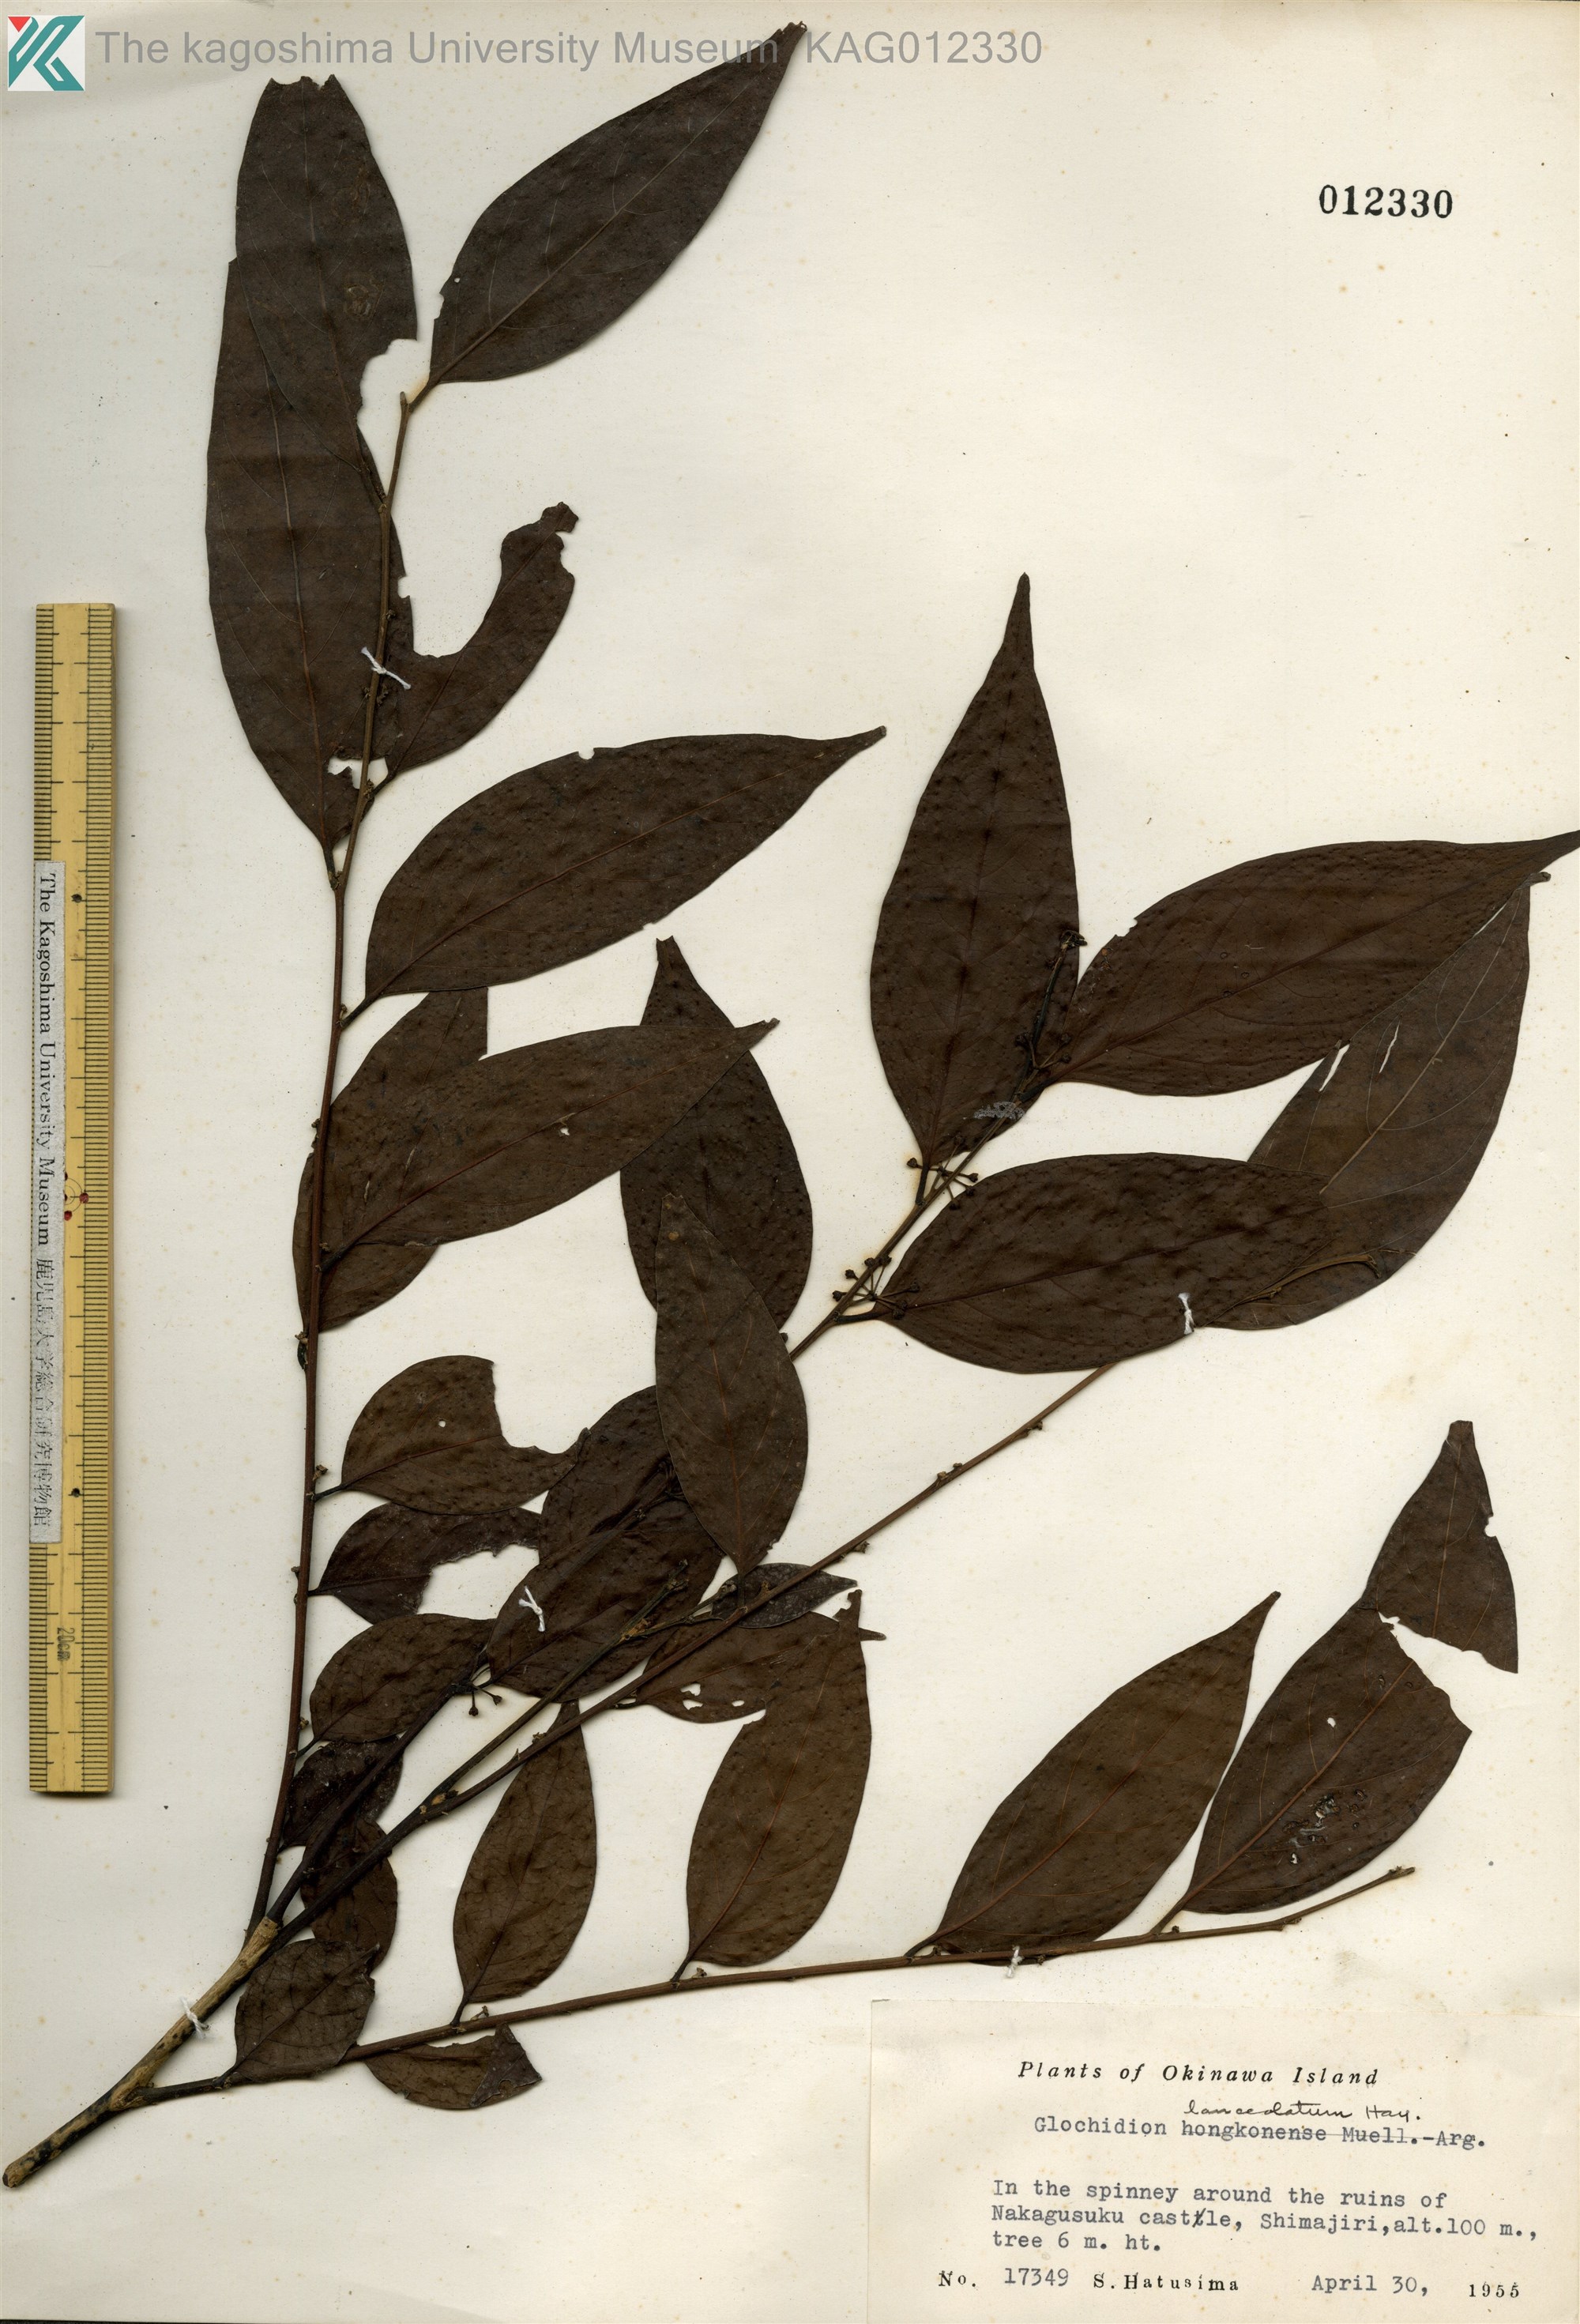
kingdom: Plantae
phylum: Tracheophyta
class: Magnoliopsida
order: Malpighiales
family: Phyllanthaceae
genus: Glochidion
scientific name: Glochidion lanceolatum
